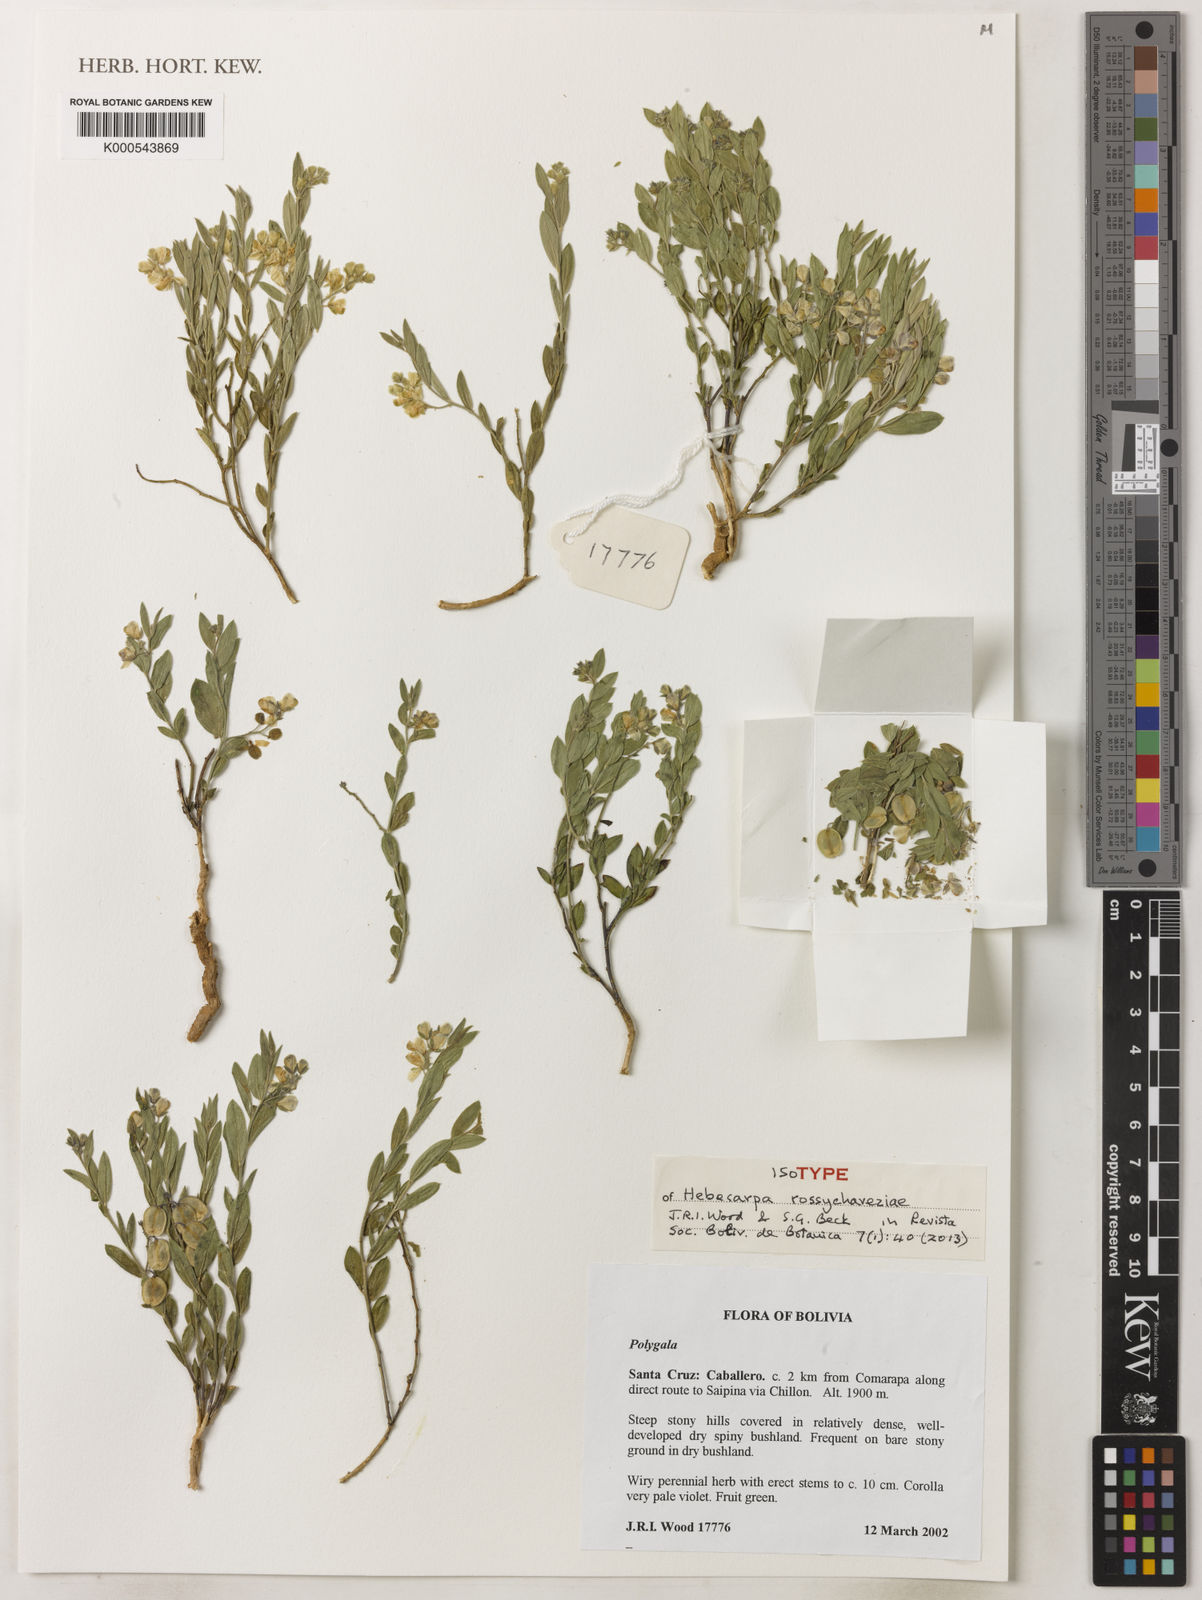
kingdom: Plantae
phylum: Tracheophyta
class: Magnoliopsida
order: Fabales
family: Polygalaceae
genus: Hebecarpa
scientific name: Hebecarpa rossychaveziae
